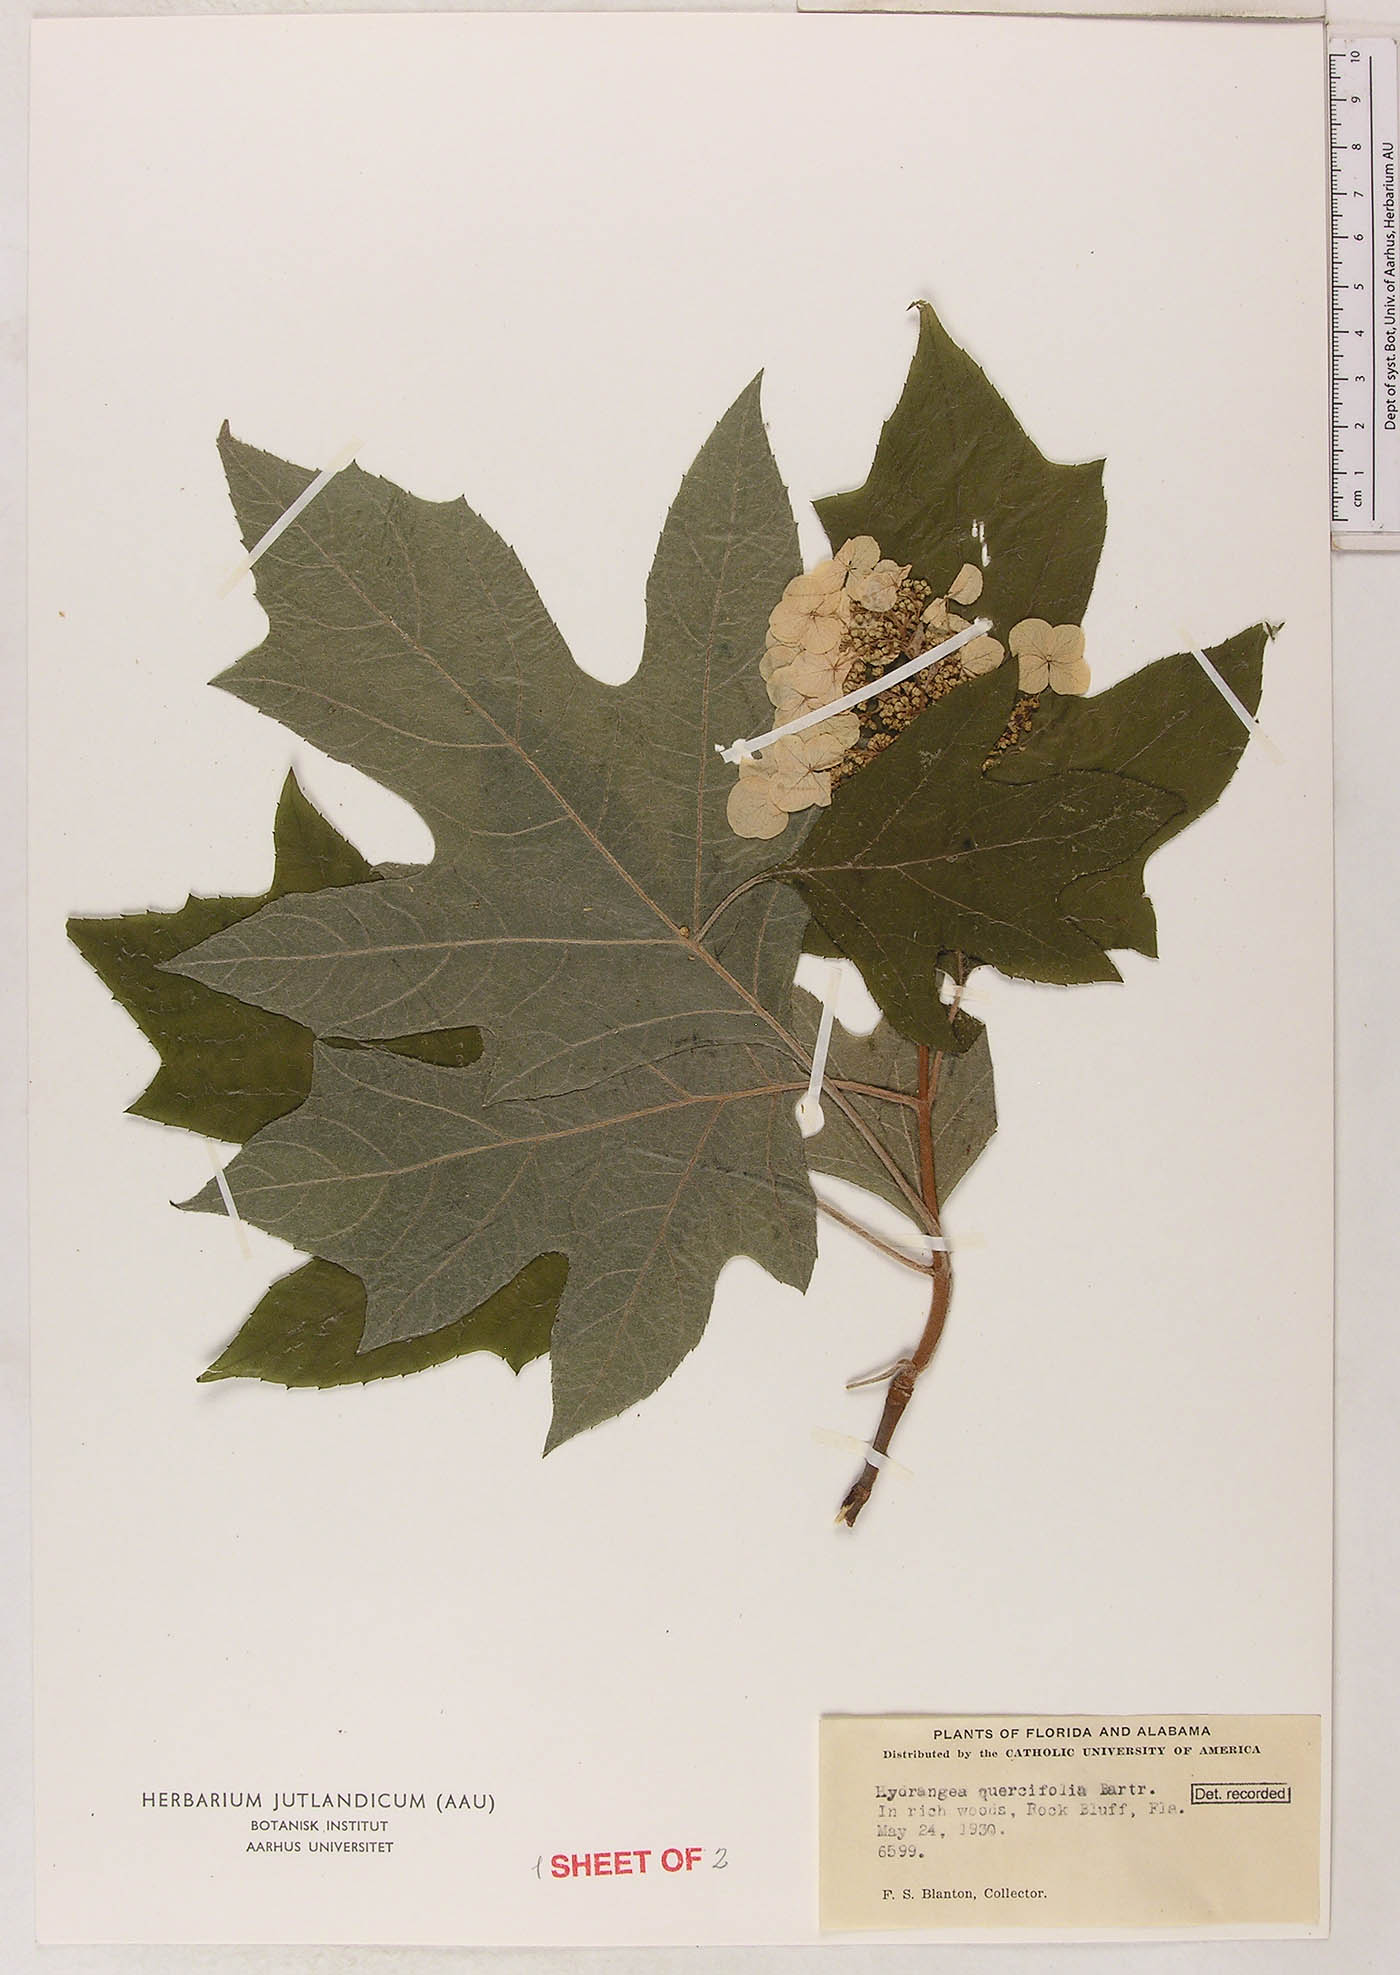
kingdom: Plantae
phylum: Tracheophyta
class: Magnoliopsida
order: Cornales
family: Hydrangeaceae
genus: Hydrangea
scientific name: Hydrangea quercifolia
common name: Oak-leaf hydrangea
